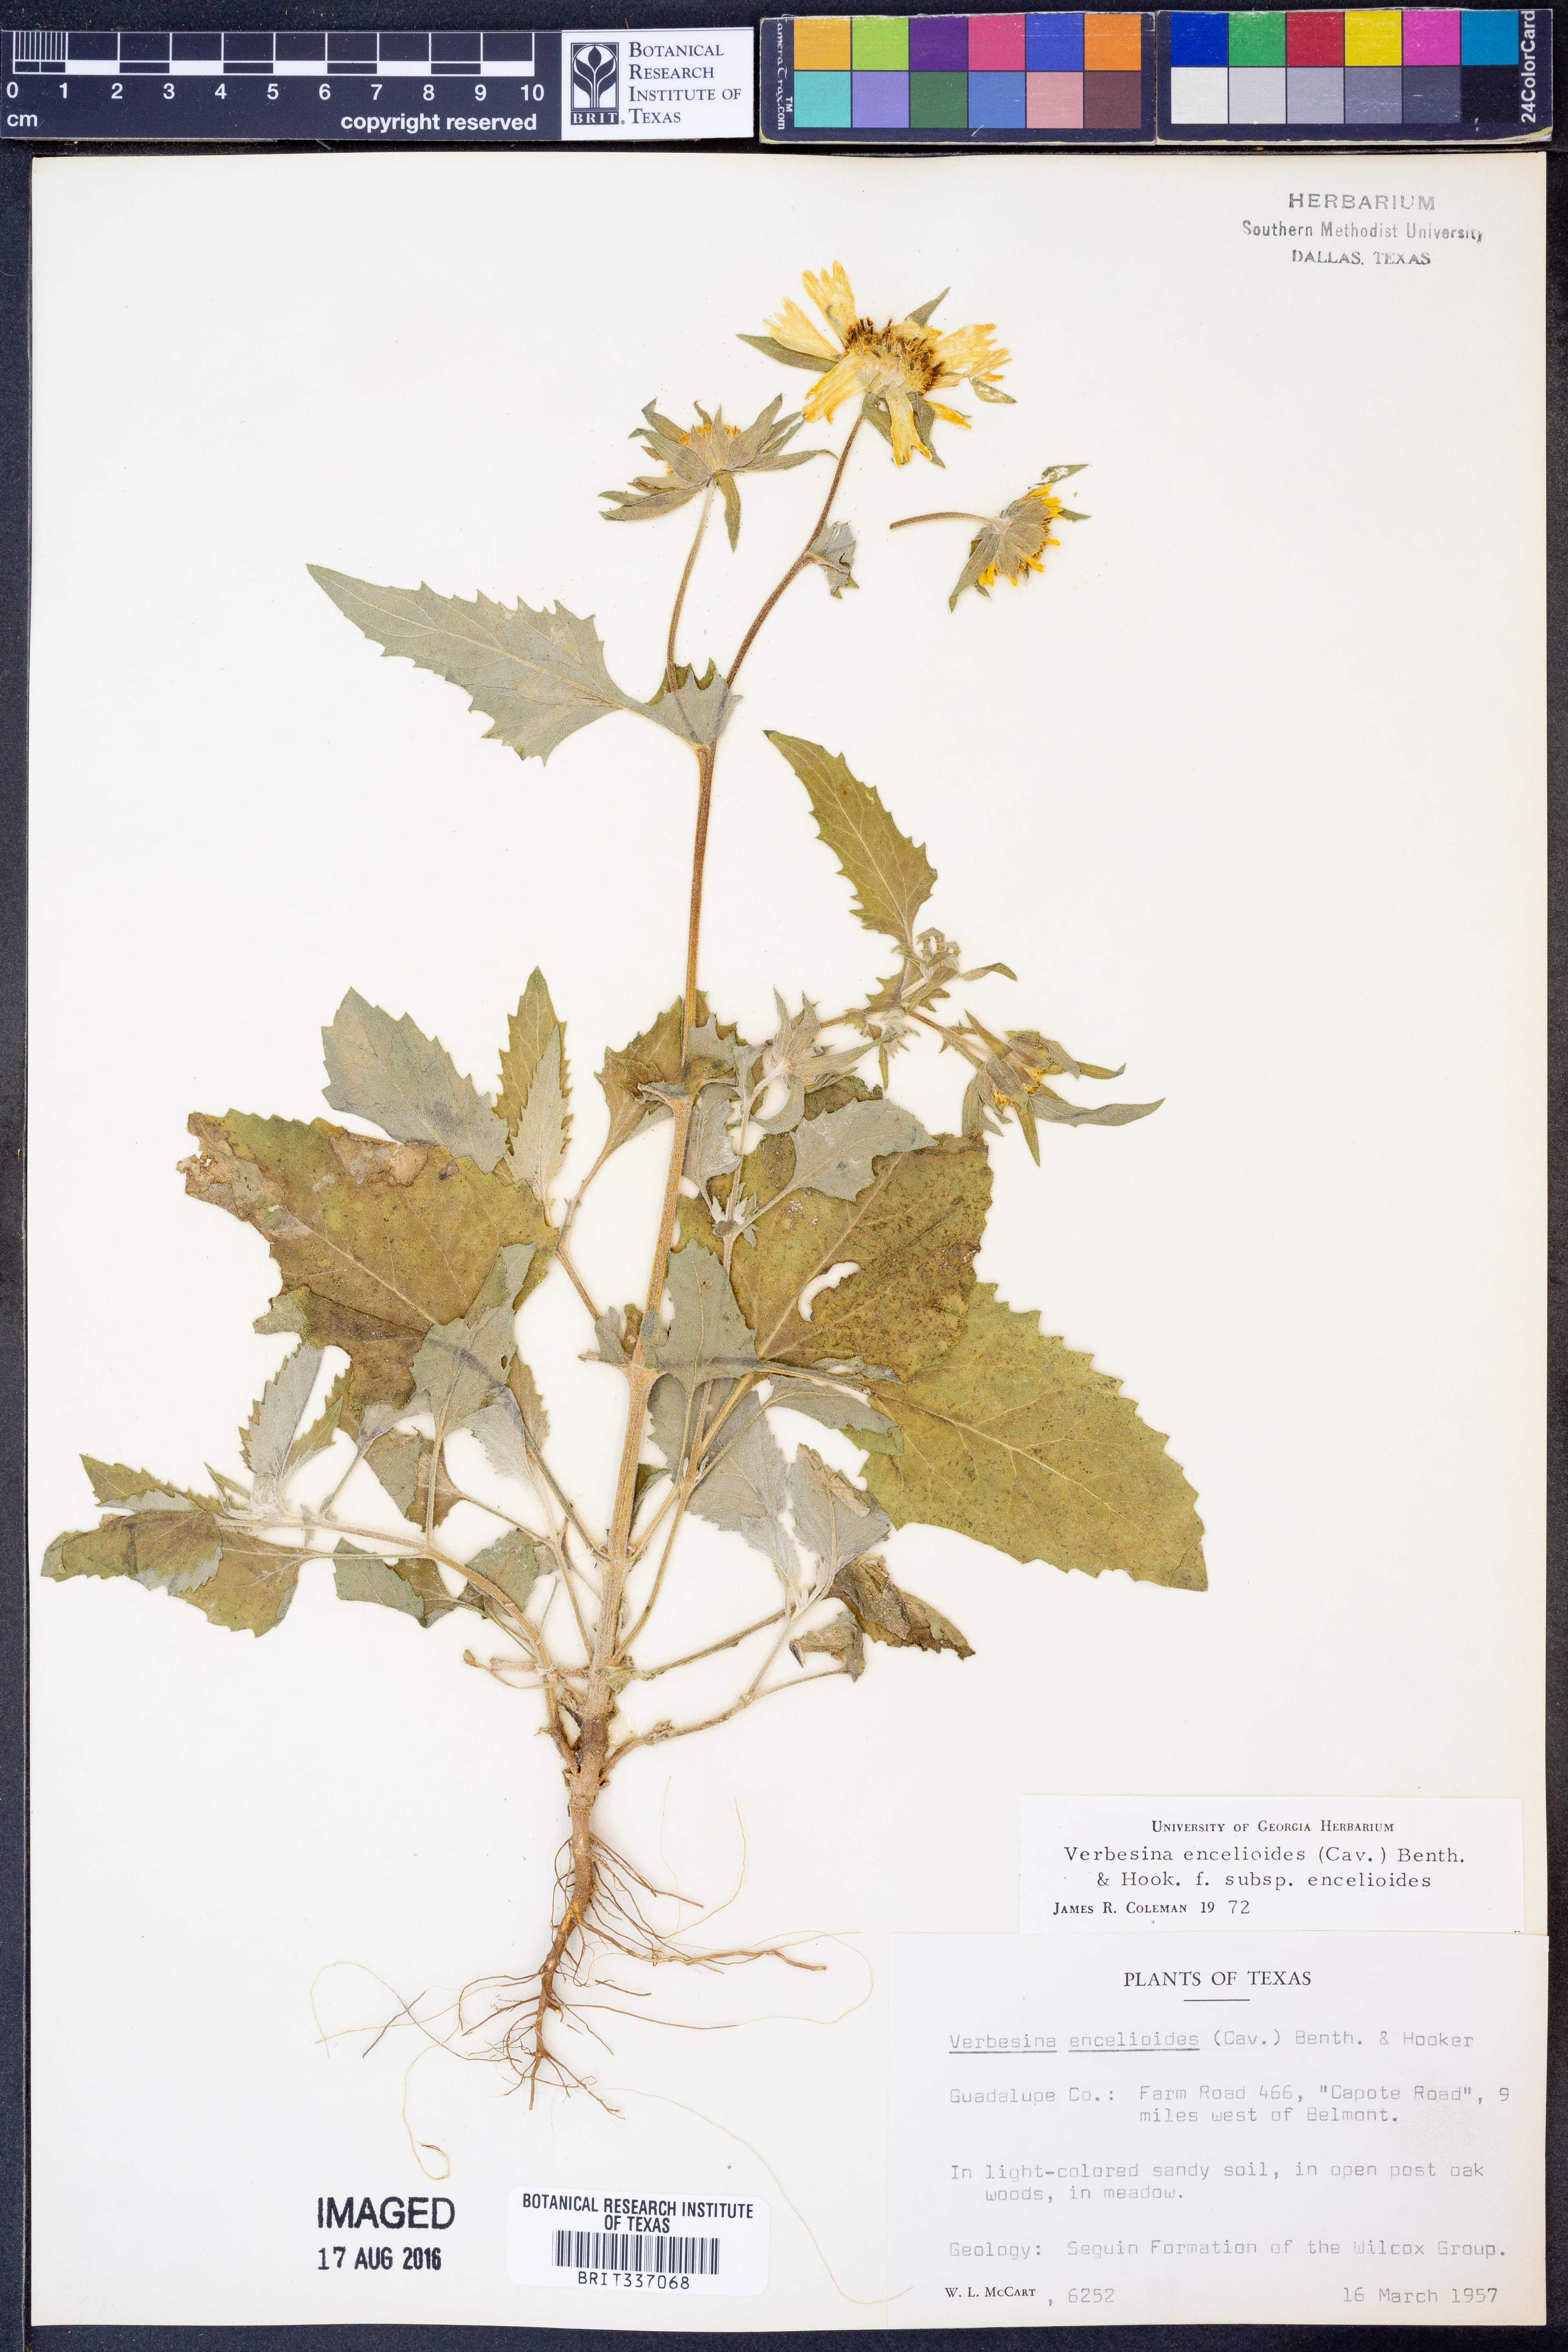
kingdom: Plantae
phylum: Tracheophyta
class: Magnoliopsida
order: Asterales
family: Asteraceae
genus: Verbesina
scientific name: Verbesina encelioides
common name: Golden crownbeard
